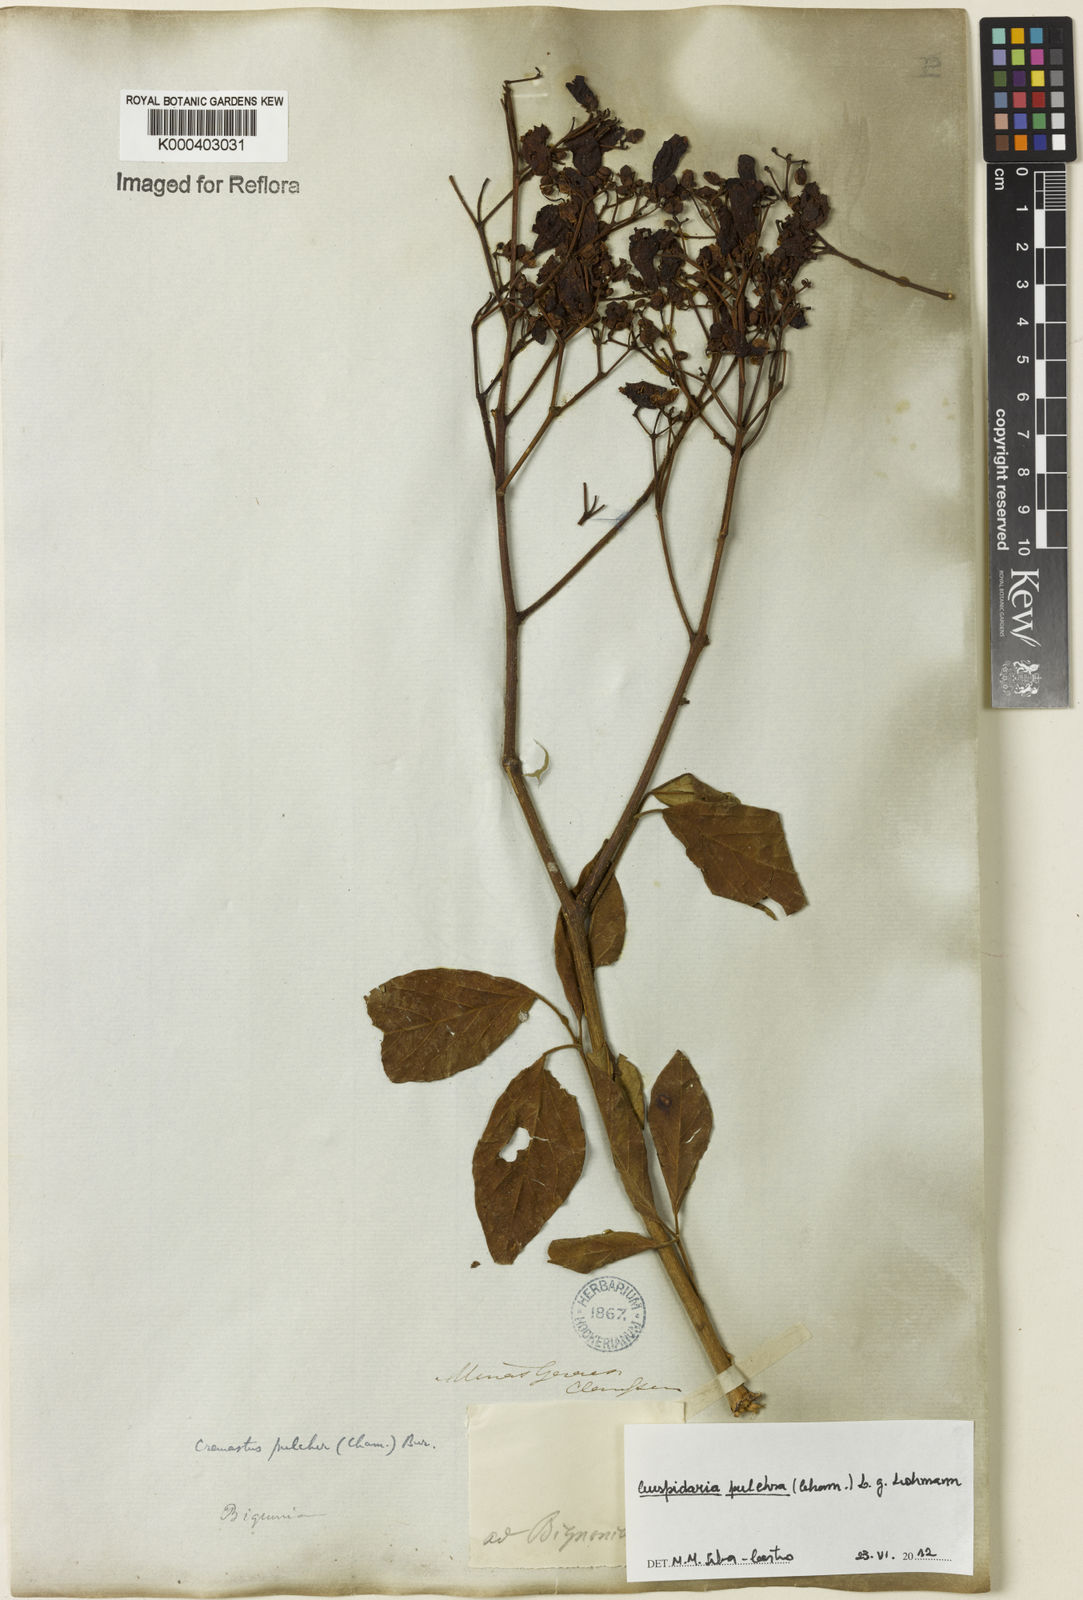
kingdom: Plantae
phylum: Tracheophyta
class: Magnoliopsida
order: Lamiales
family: Bignoniaceae
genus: Cuspidaria
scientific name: Cuspidaria pulchra
